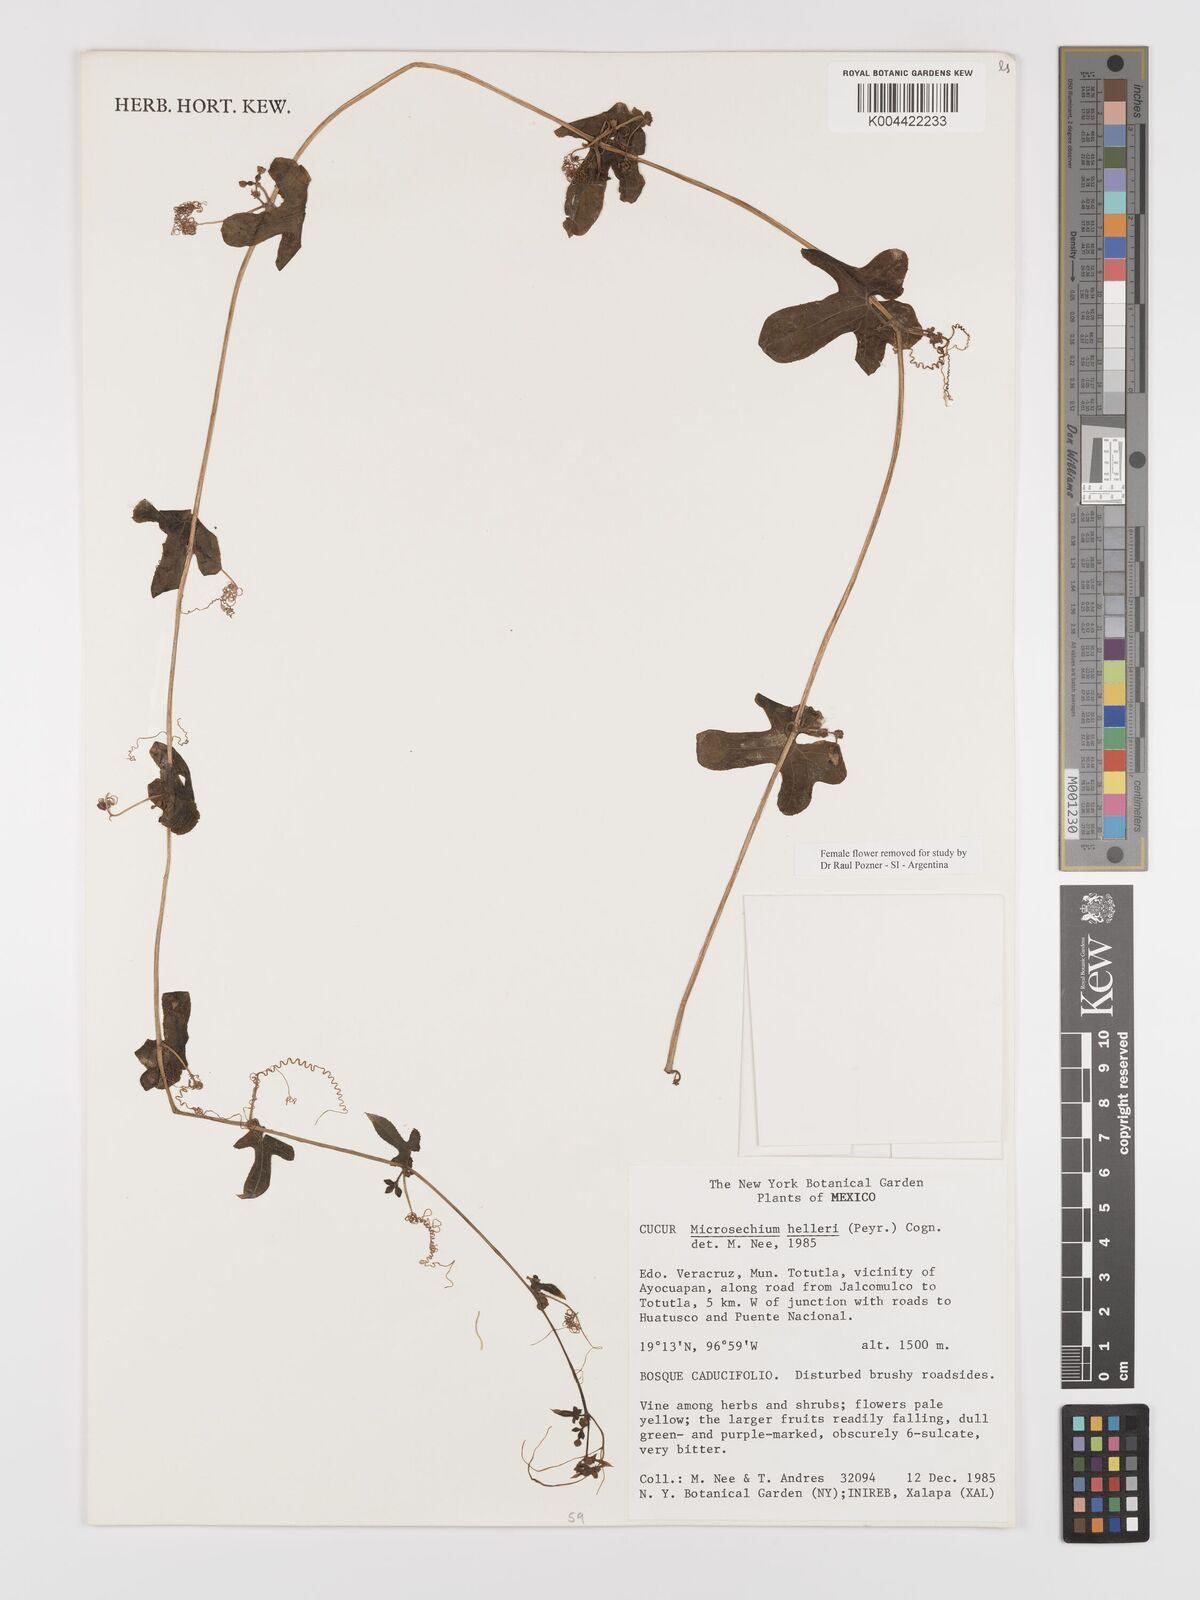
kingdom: Plantae
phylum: Tracheophyta
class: Magnoliopsida
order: Cucurbitales
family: Cucurbitaceae
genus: Microsechium
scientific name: Microsechium palmatum
